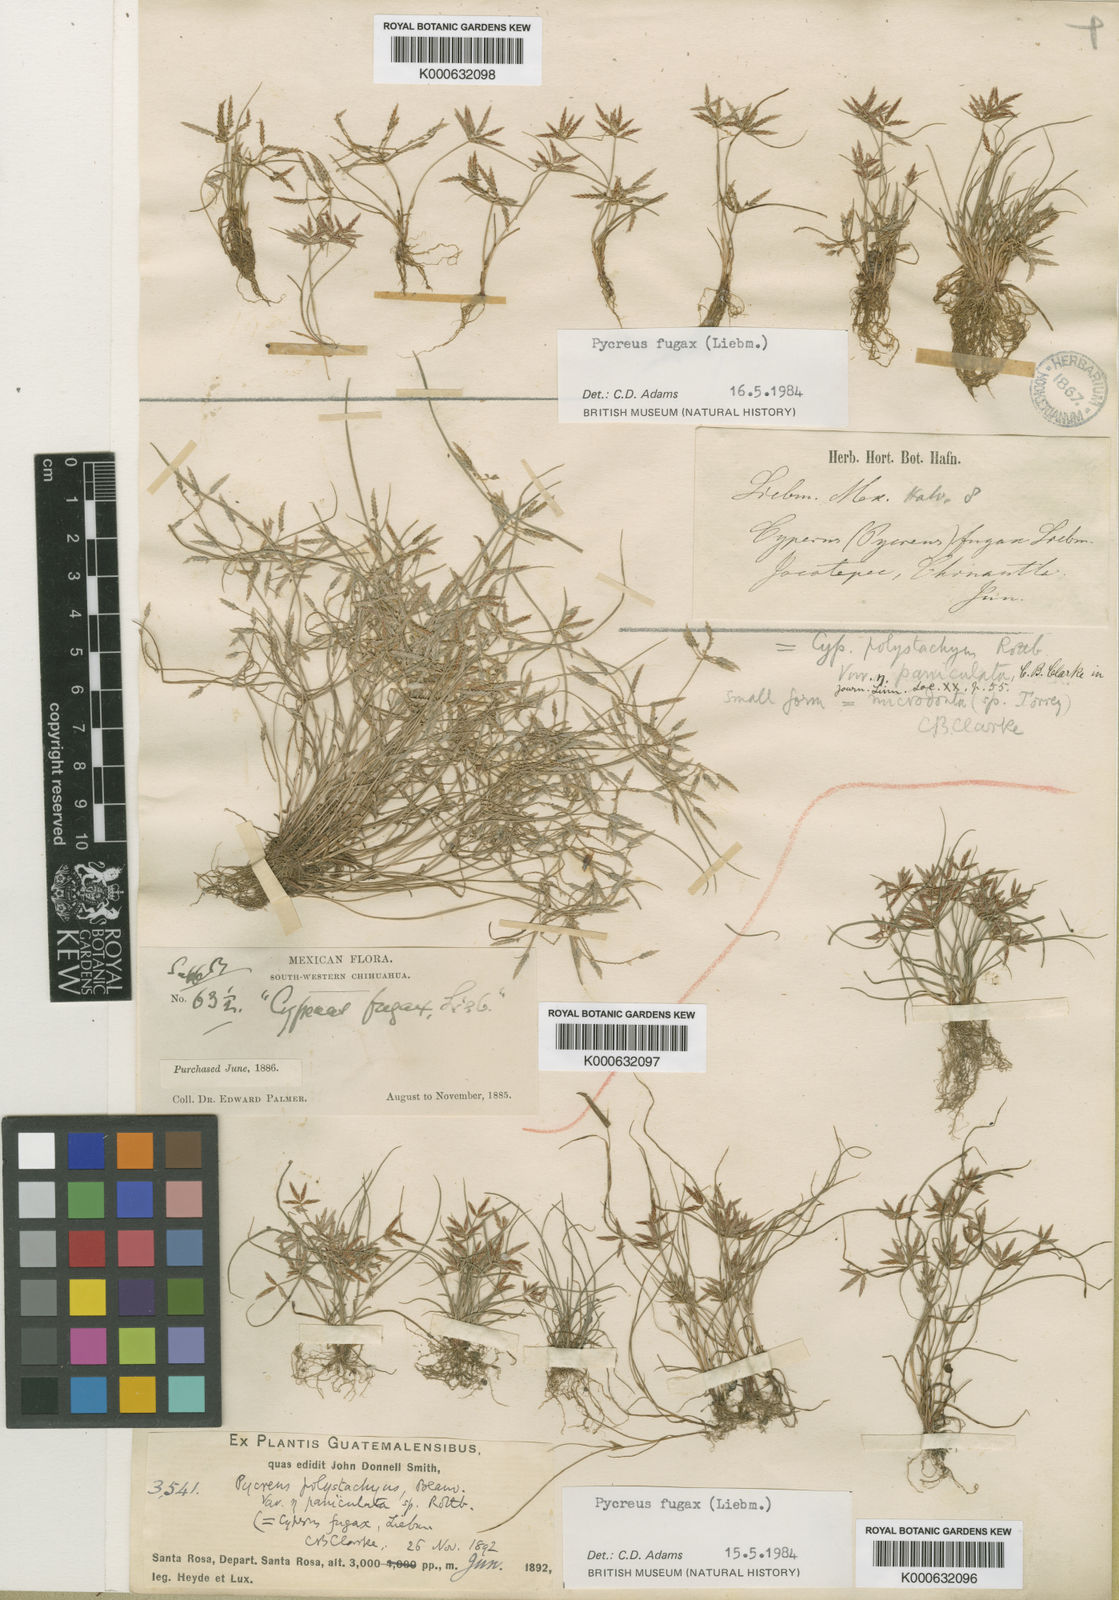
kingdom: Plantae
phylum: Tracheophyta
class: Liliopsida
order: Poales
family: Cyperaceae
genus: Cyperus
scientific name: Cyperus polystachyos
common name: Bunchy flat sedge
